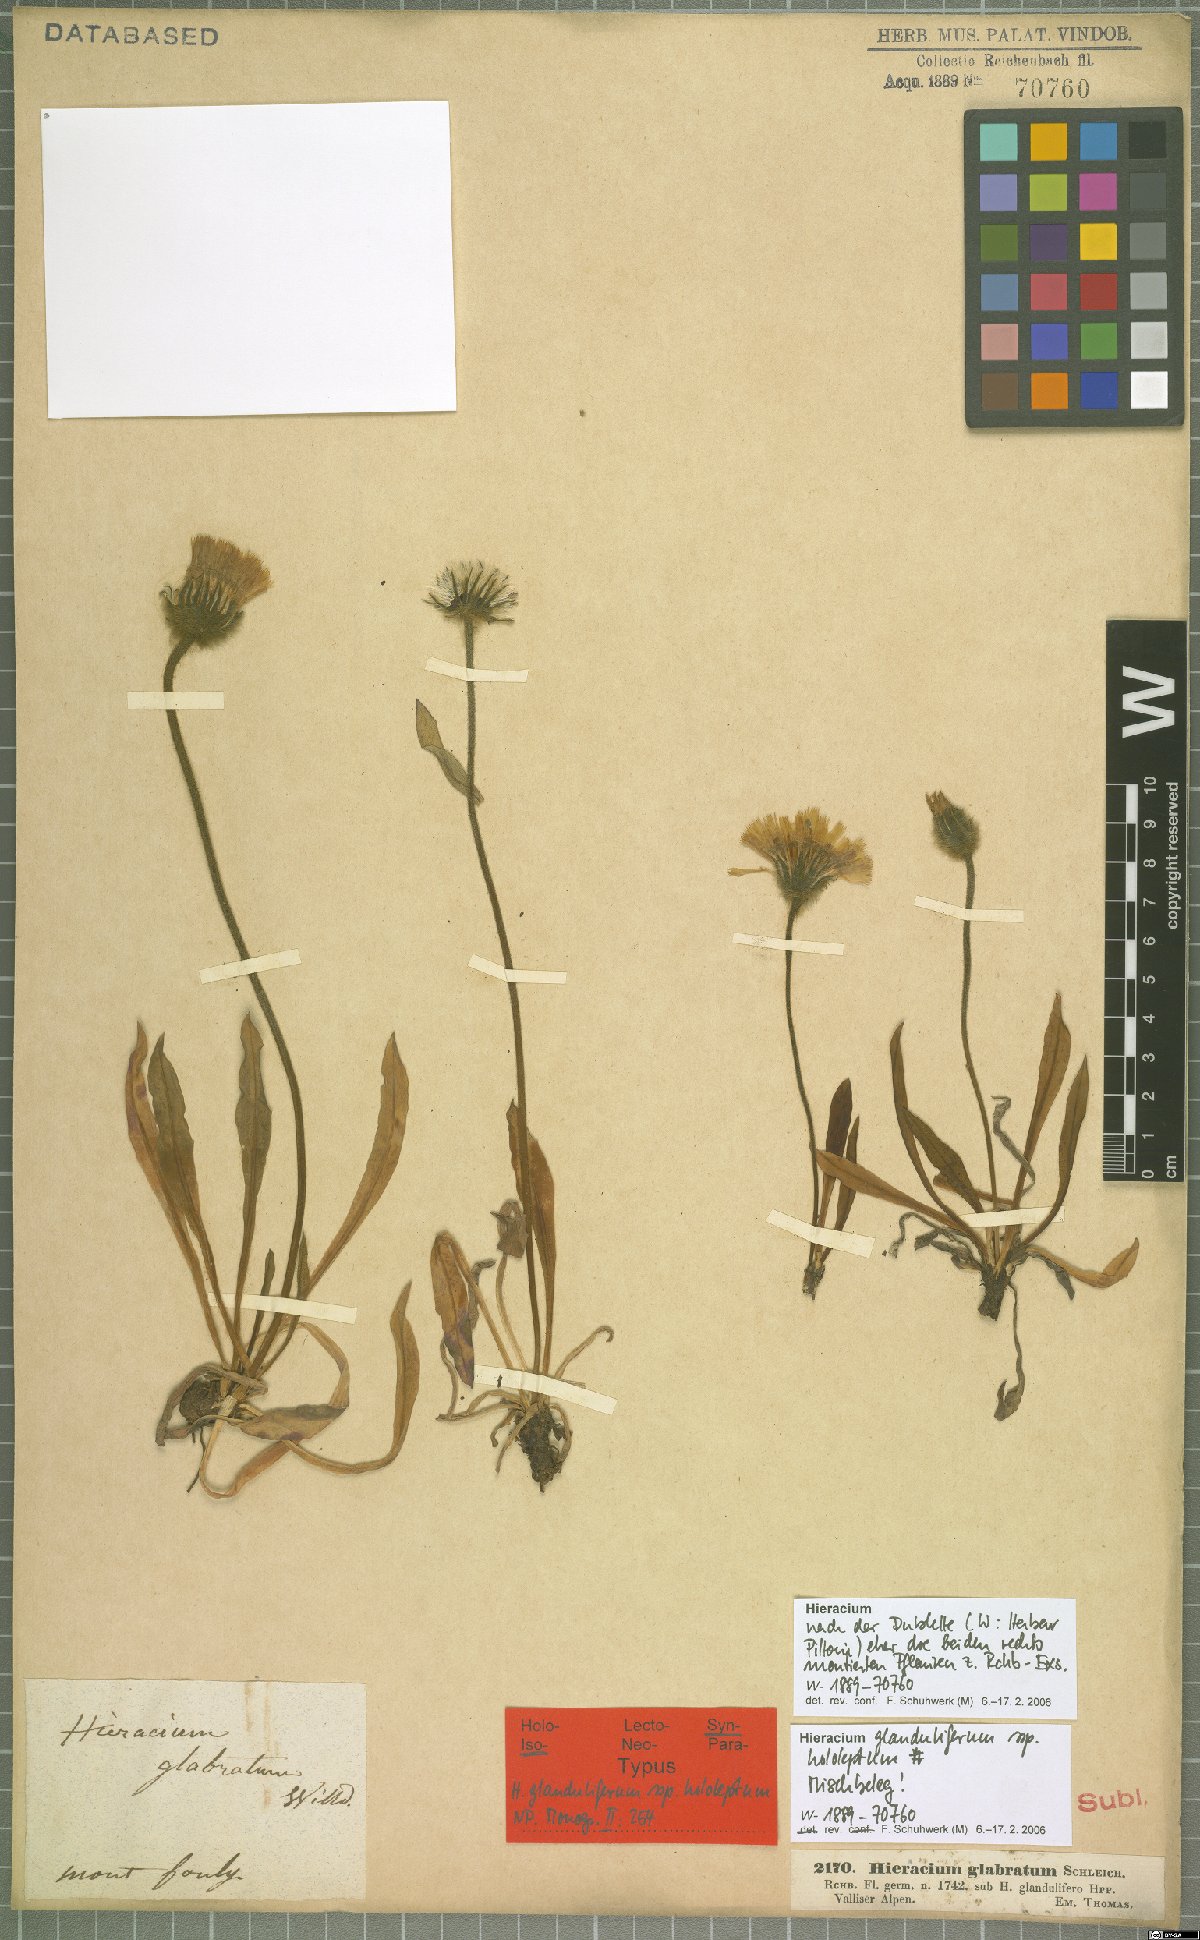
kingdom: Plantae
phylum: Tracheophyta
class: Magnoliopsida
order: Asterales
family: Asteraceae
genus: Hieracium
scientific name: Hieracium piliferum
